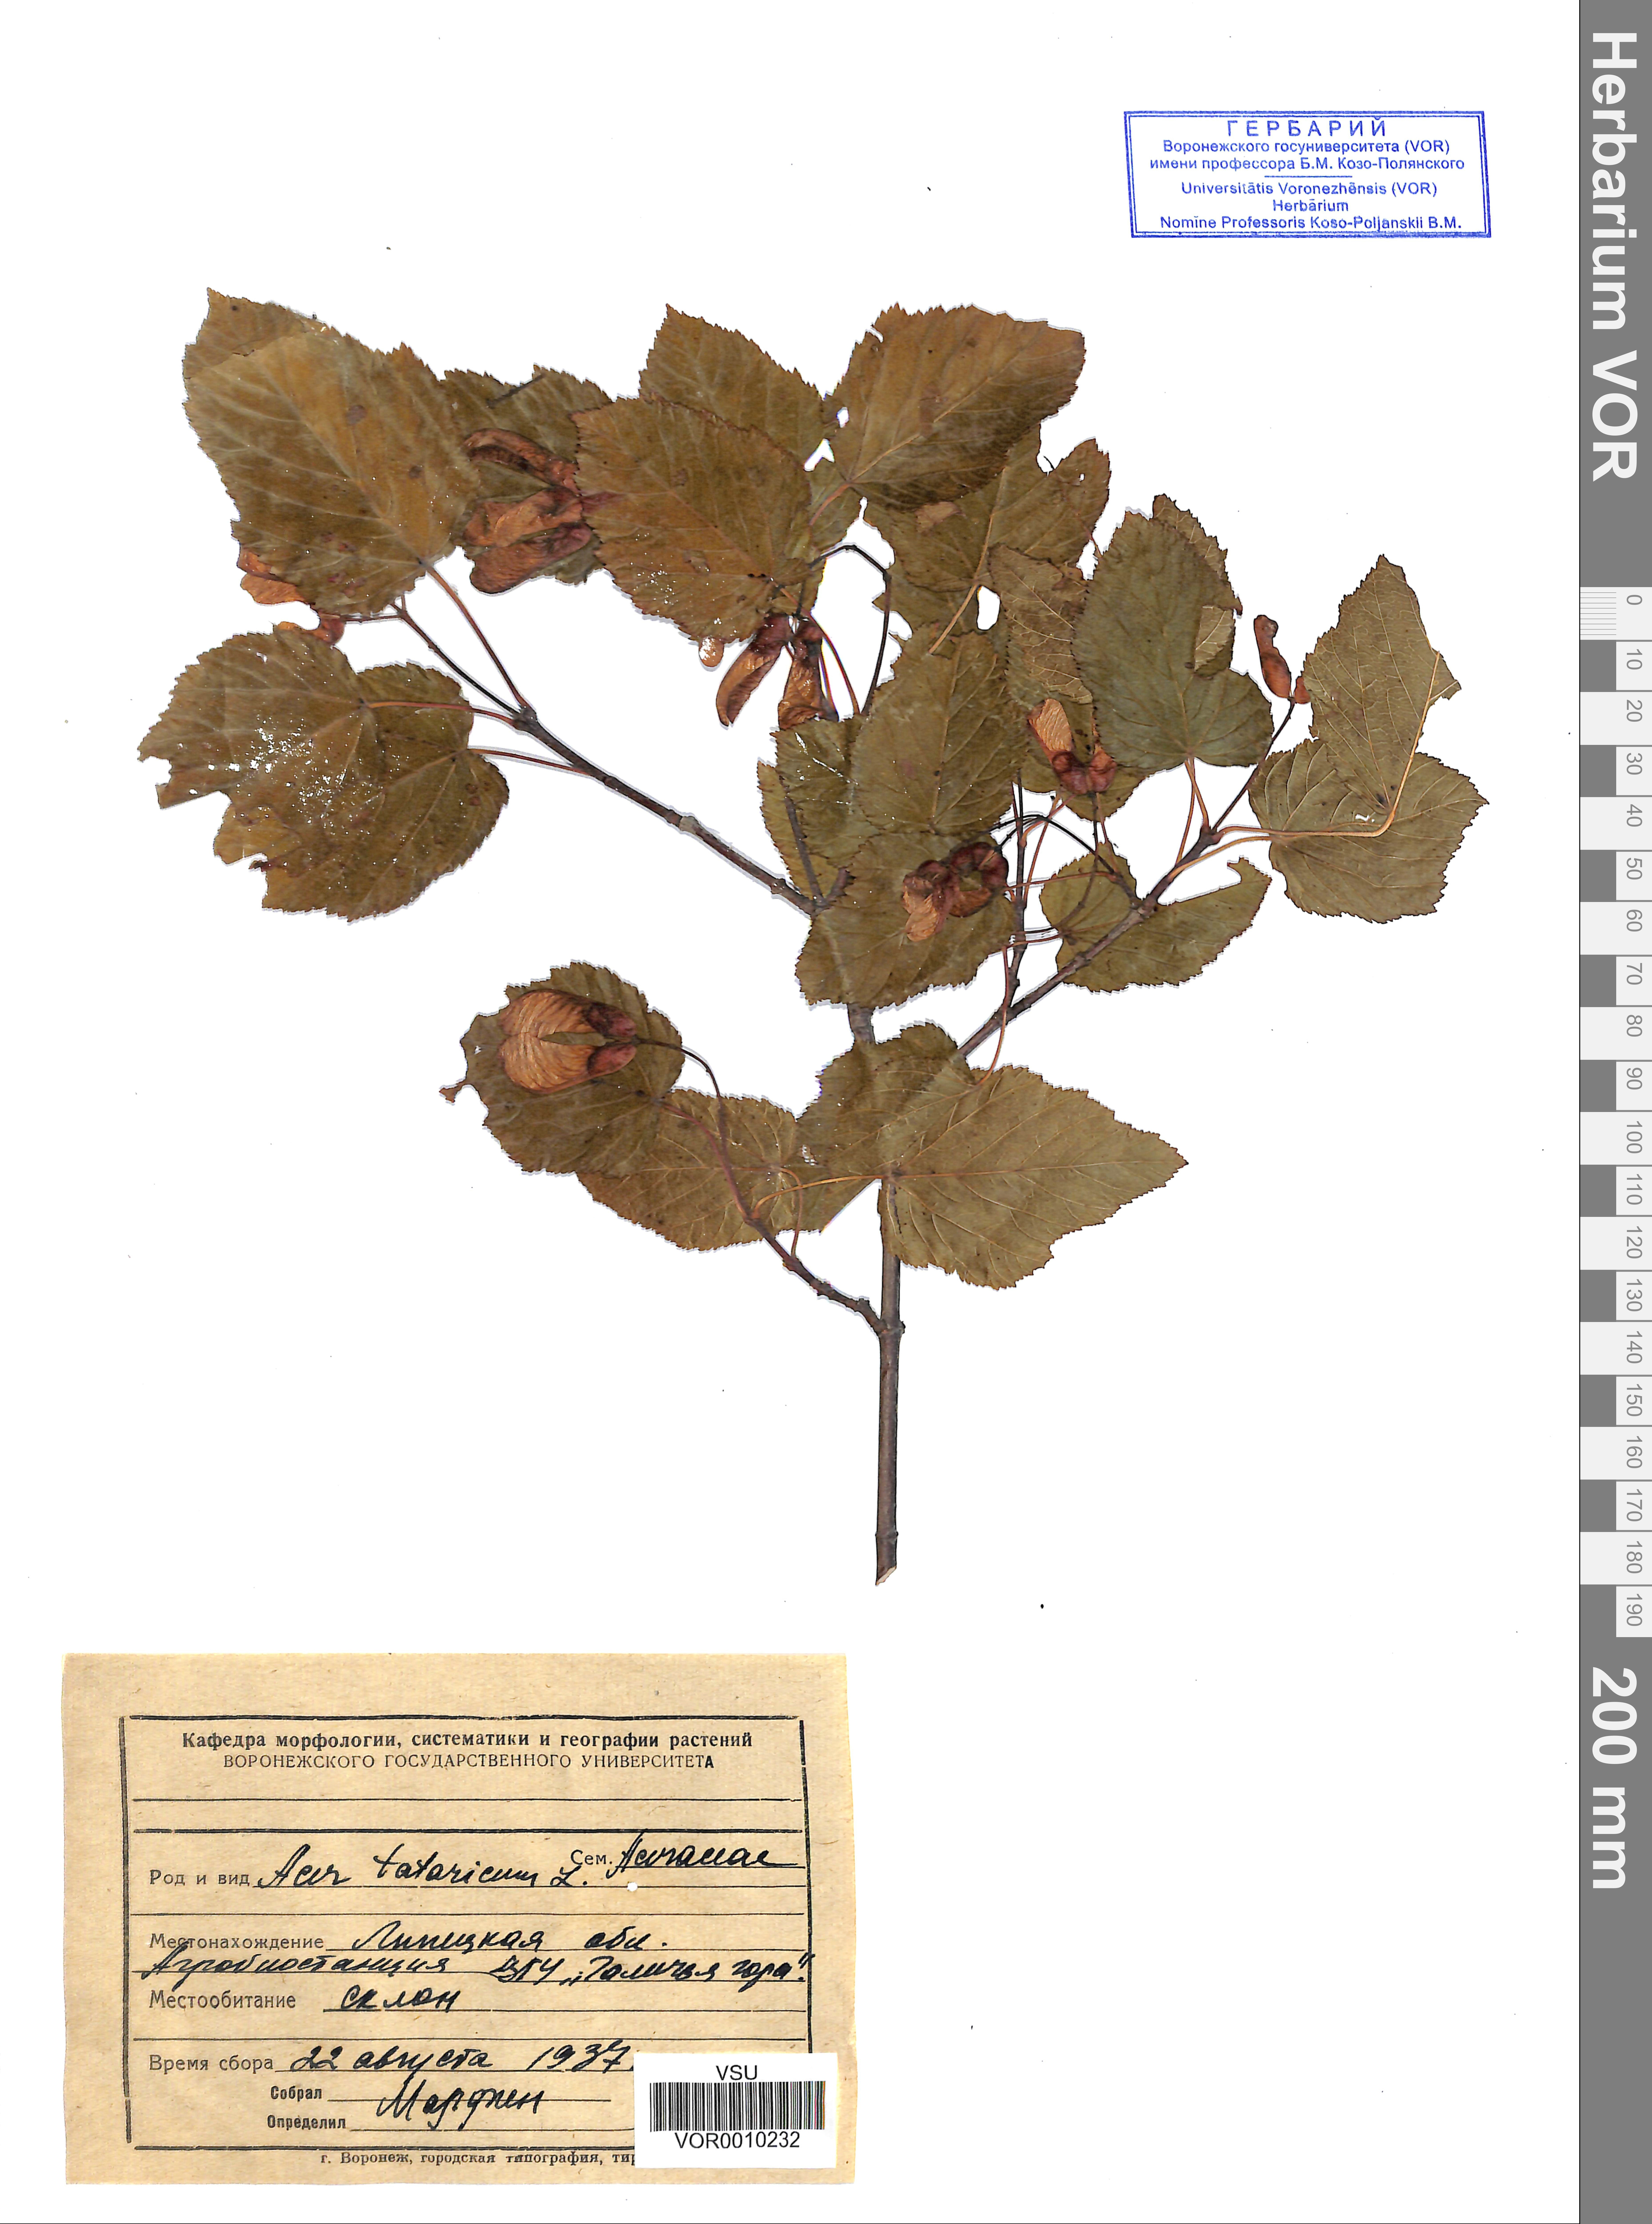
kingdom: Plantae
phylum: Tracheophyta
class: Magnoliopsida
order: Sapindales
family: Sapindaceae
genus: Acer
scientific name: Acer tataricum
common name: Tartar maple
